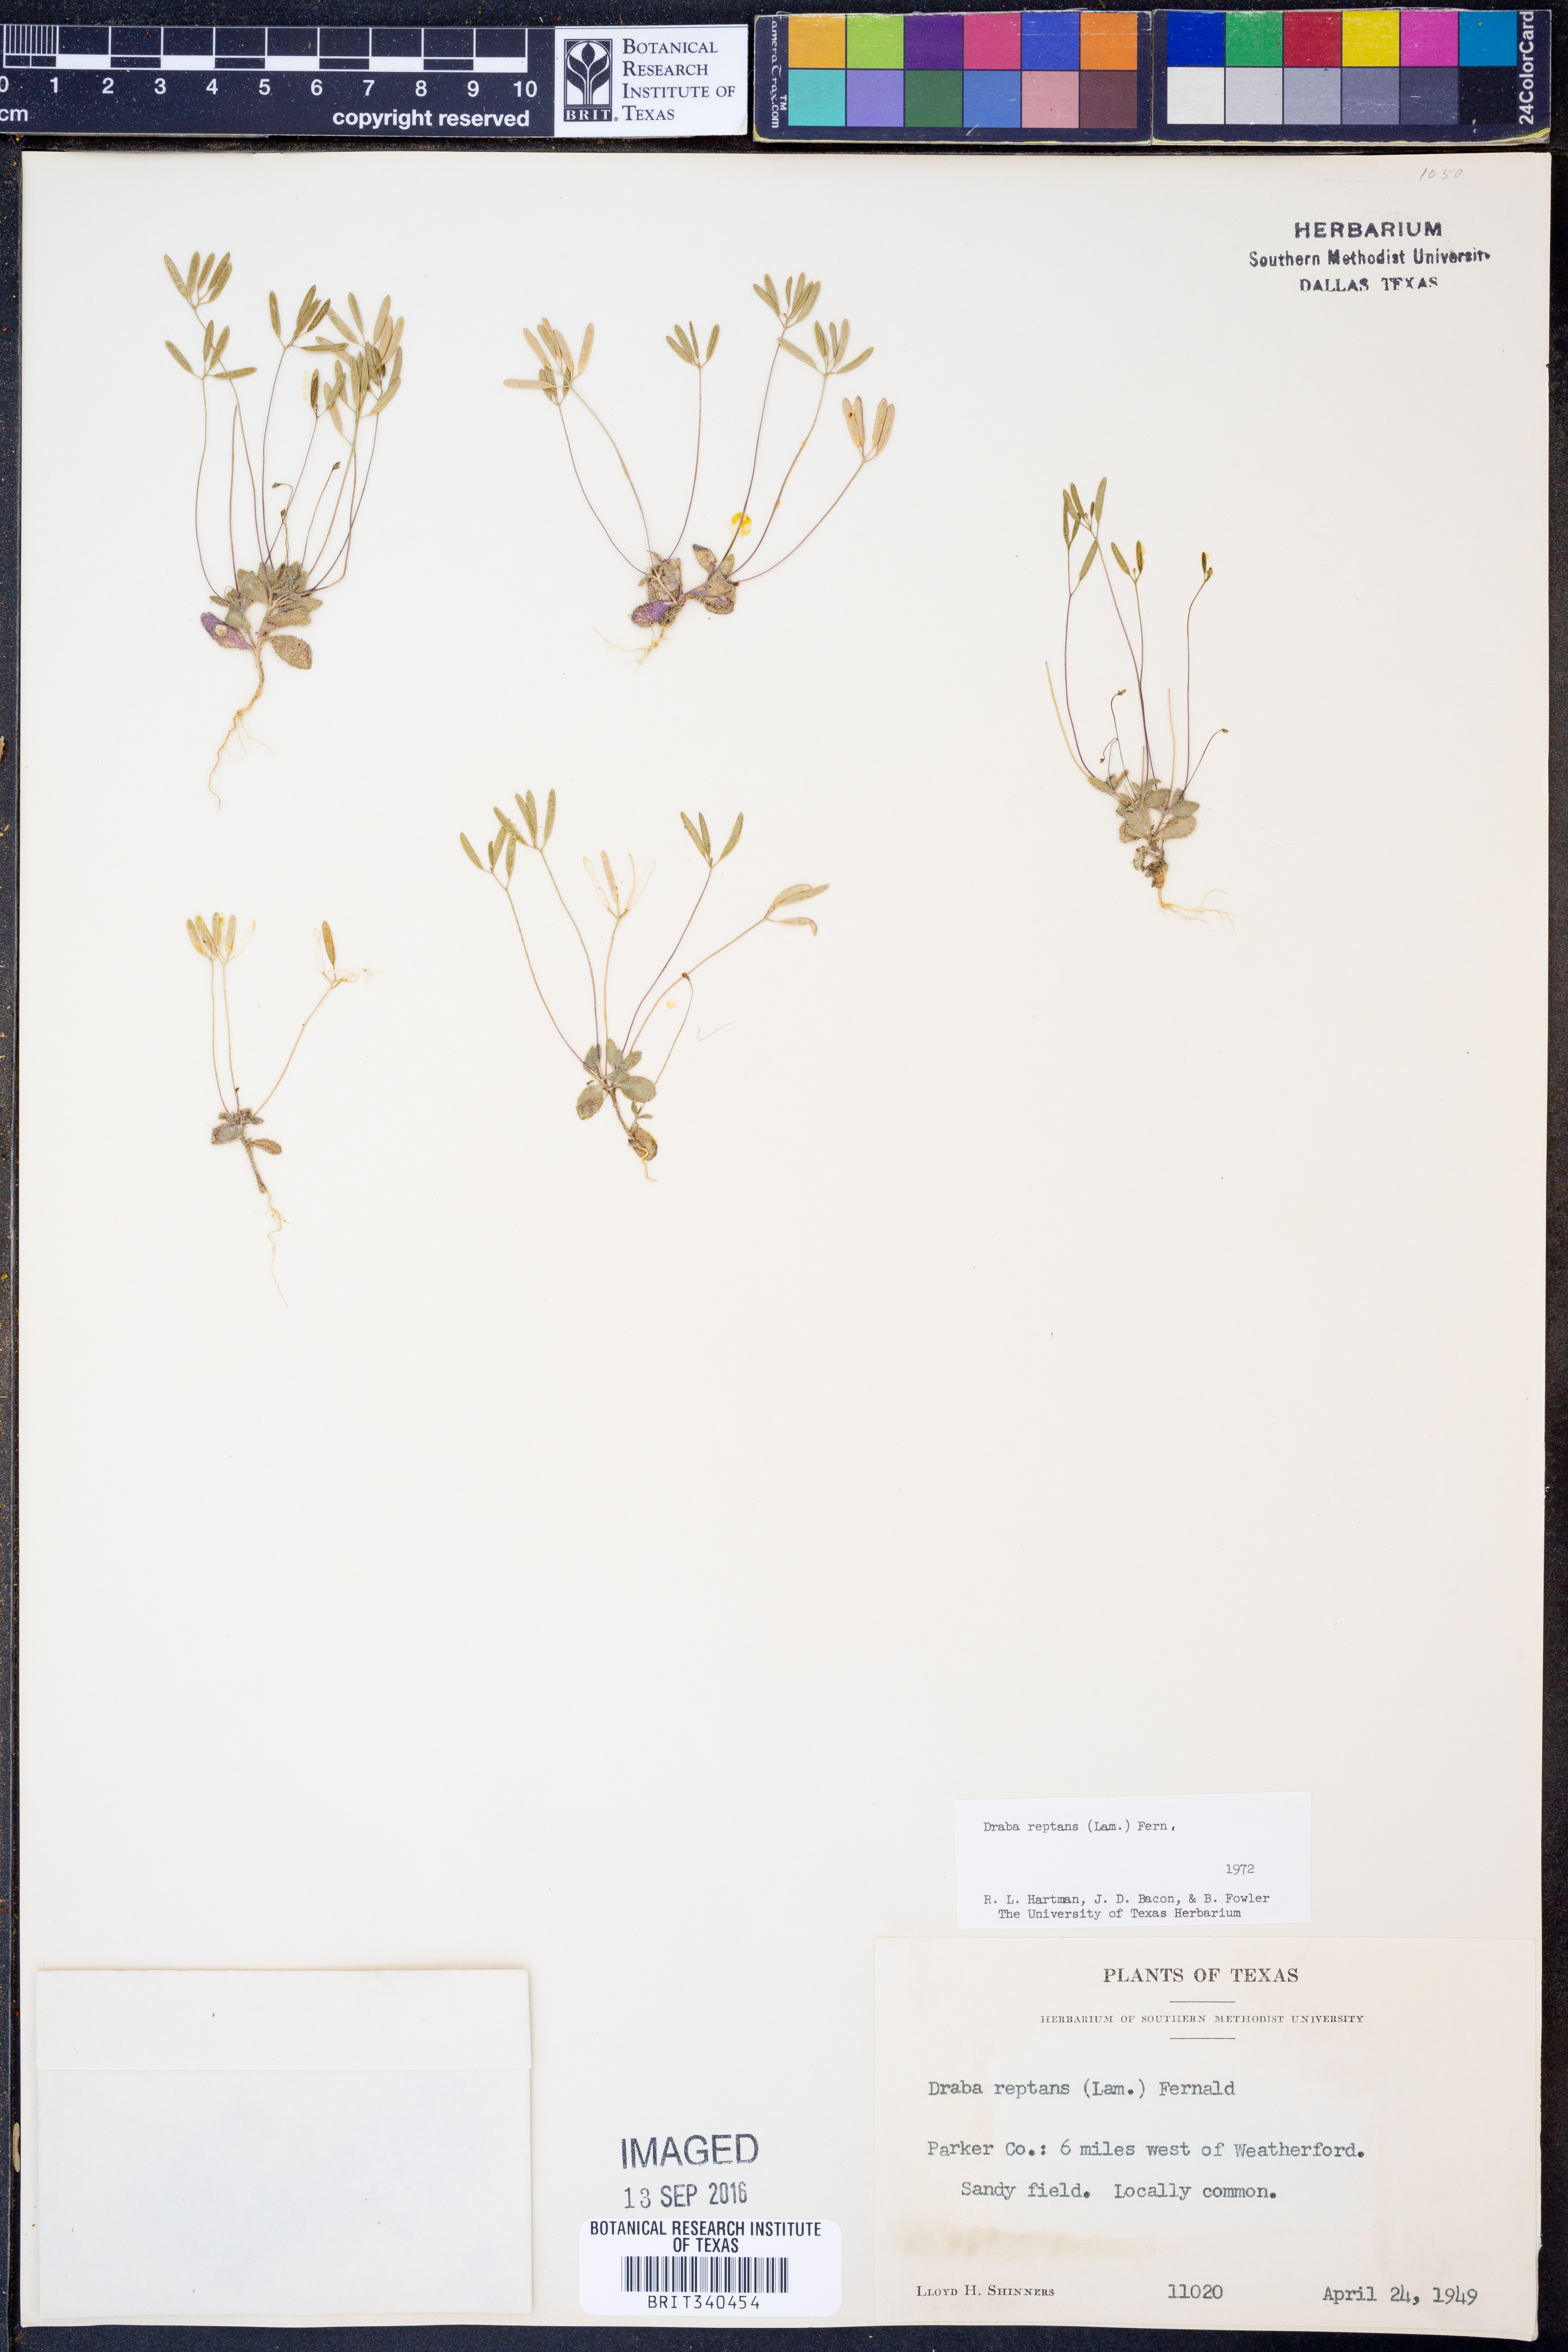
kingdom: Plantae
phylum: Tracheophyta
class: Magnoliopsida
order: Brassicales
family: Brassicaceae
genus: Tomostima
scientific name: Tomostima reptans
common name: Carolina draba
